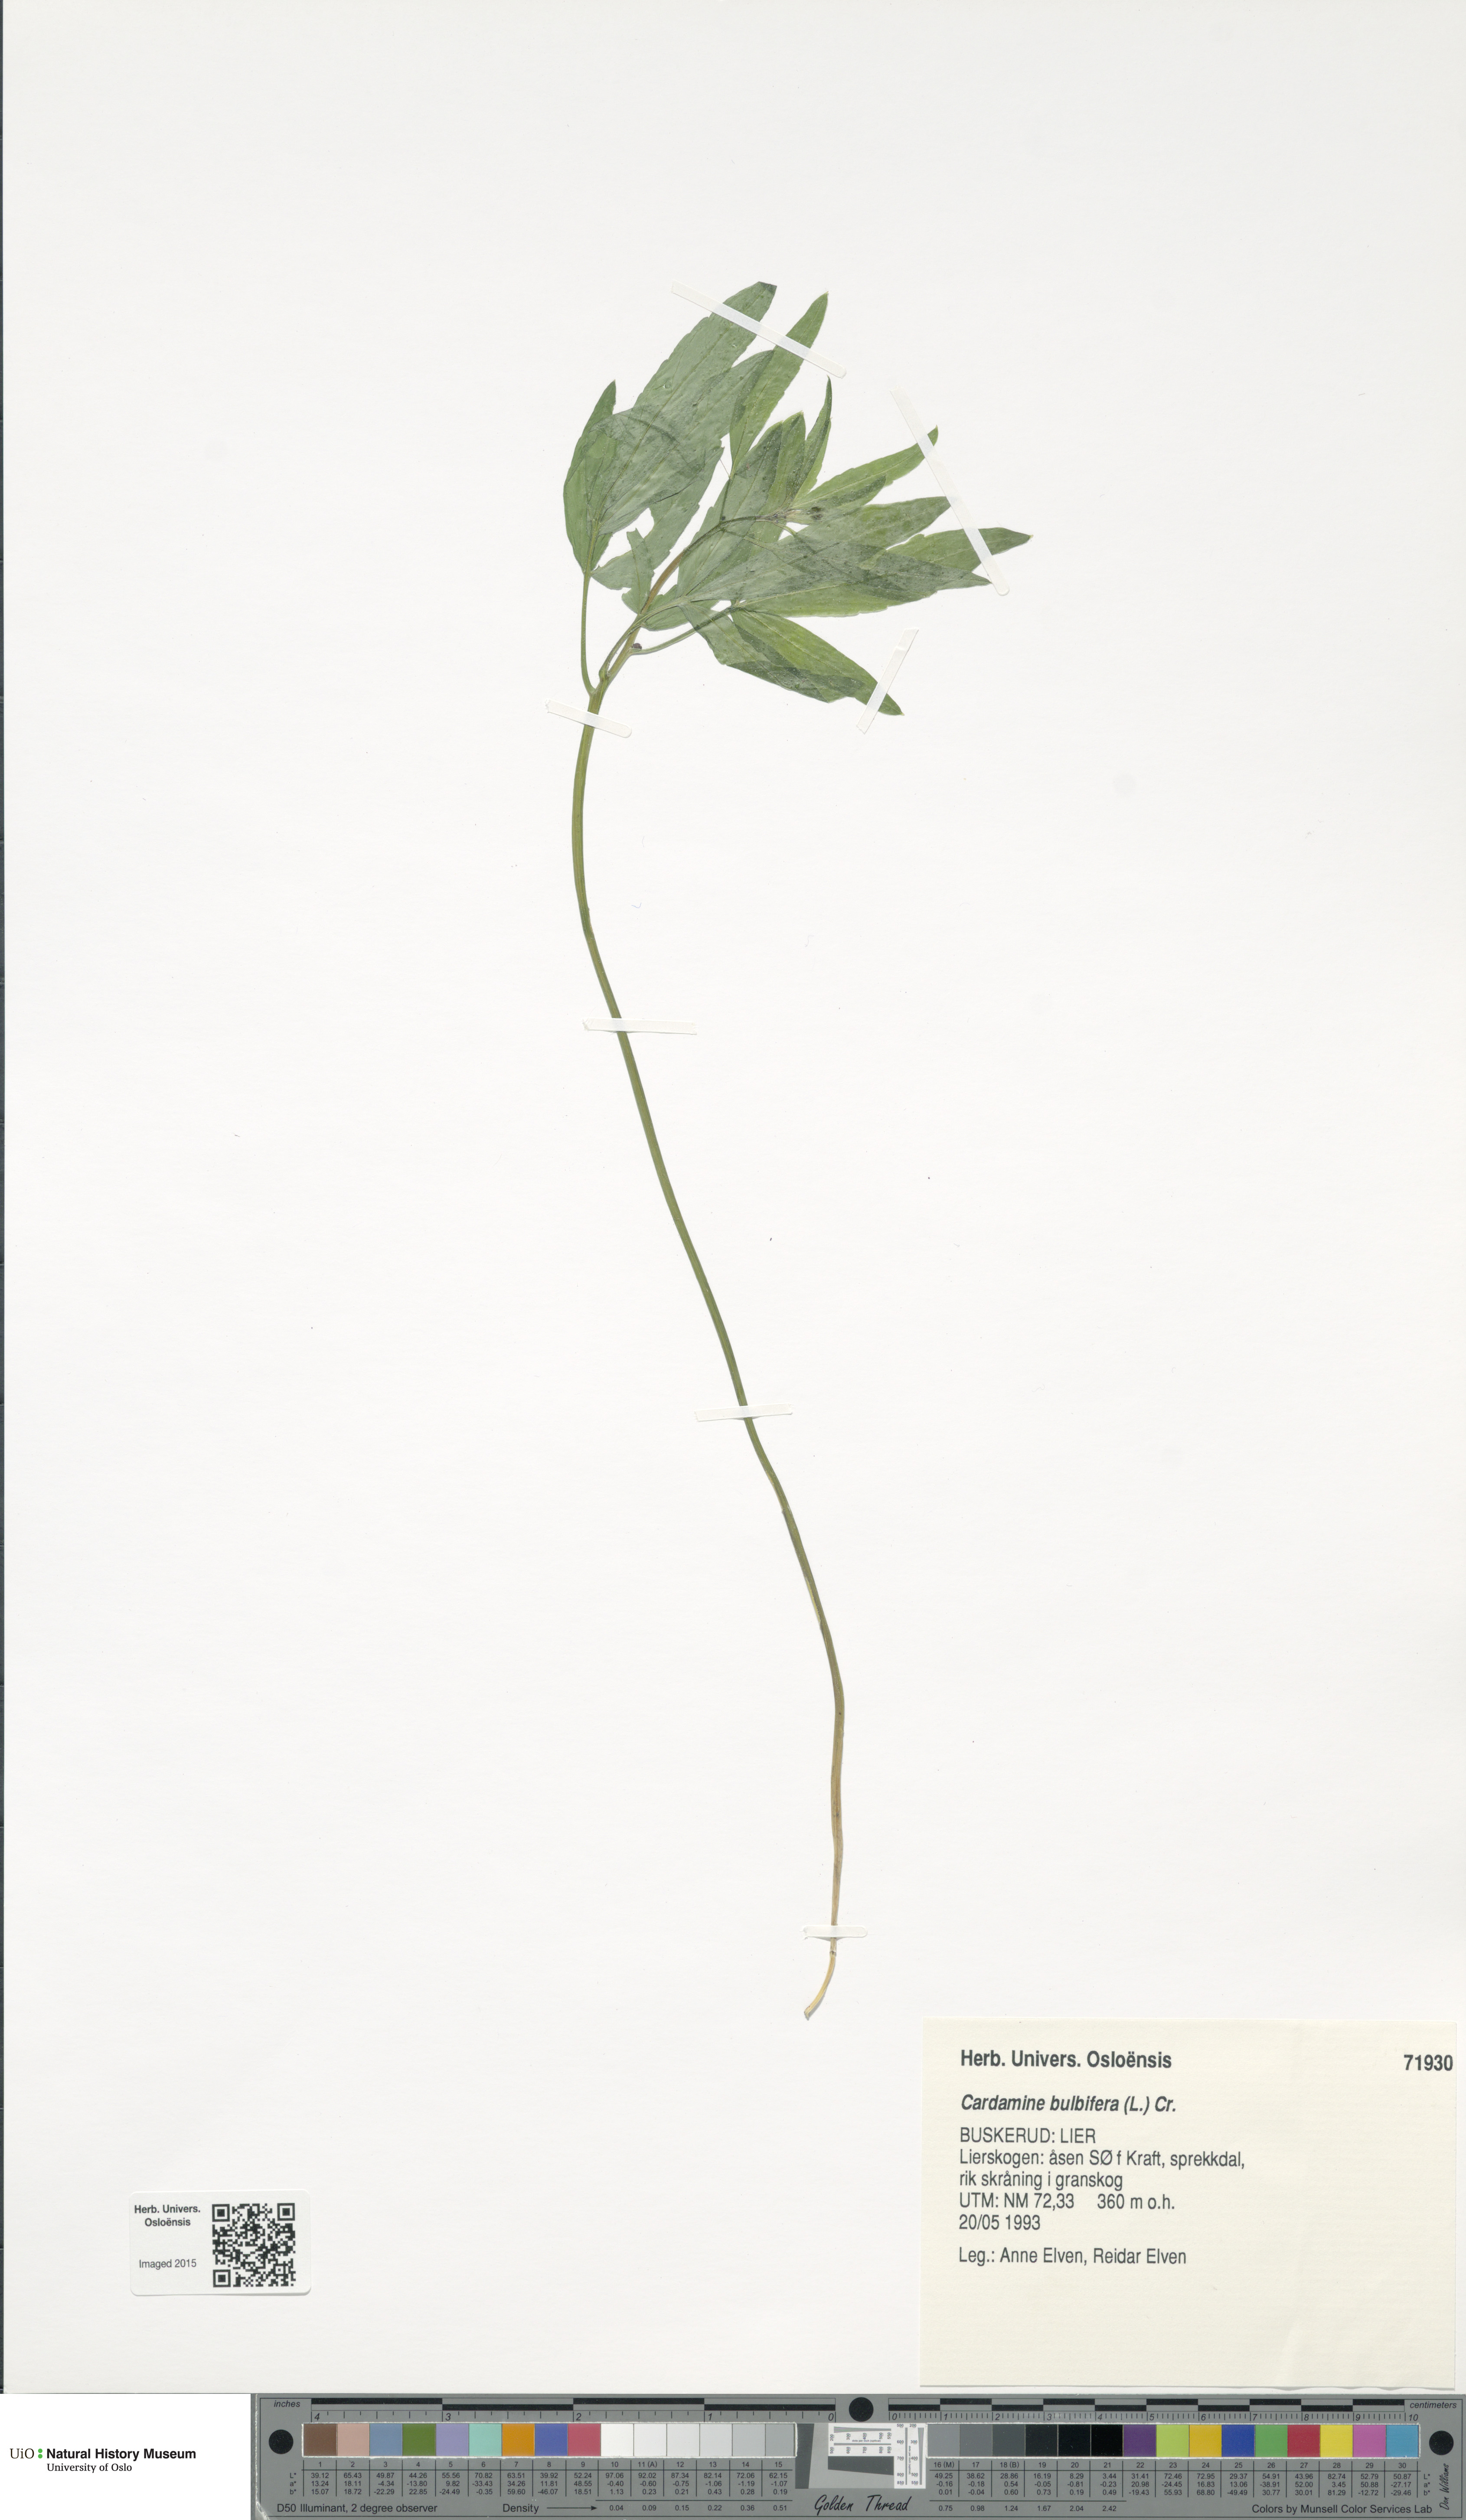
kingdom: Plantae
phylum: Tracheophyta
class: Magnoliopsida
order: Brassicales
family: Brassicaceae
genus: Cardamine
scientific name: Cardamine bulbifera
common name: Coralroot bittercress
